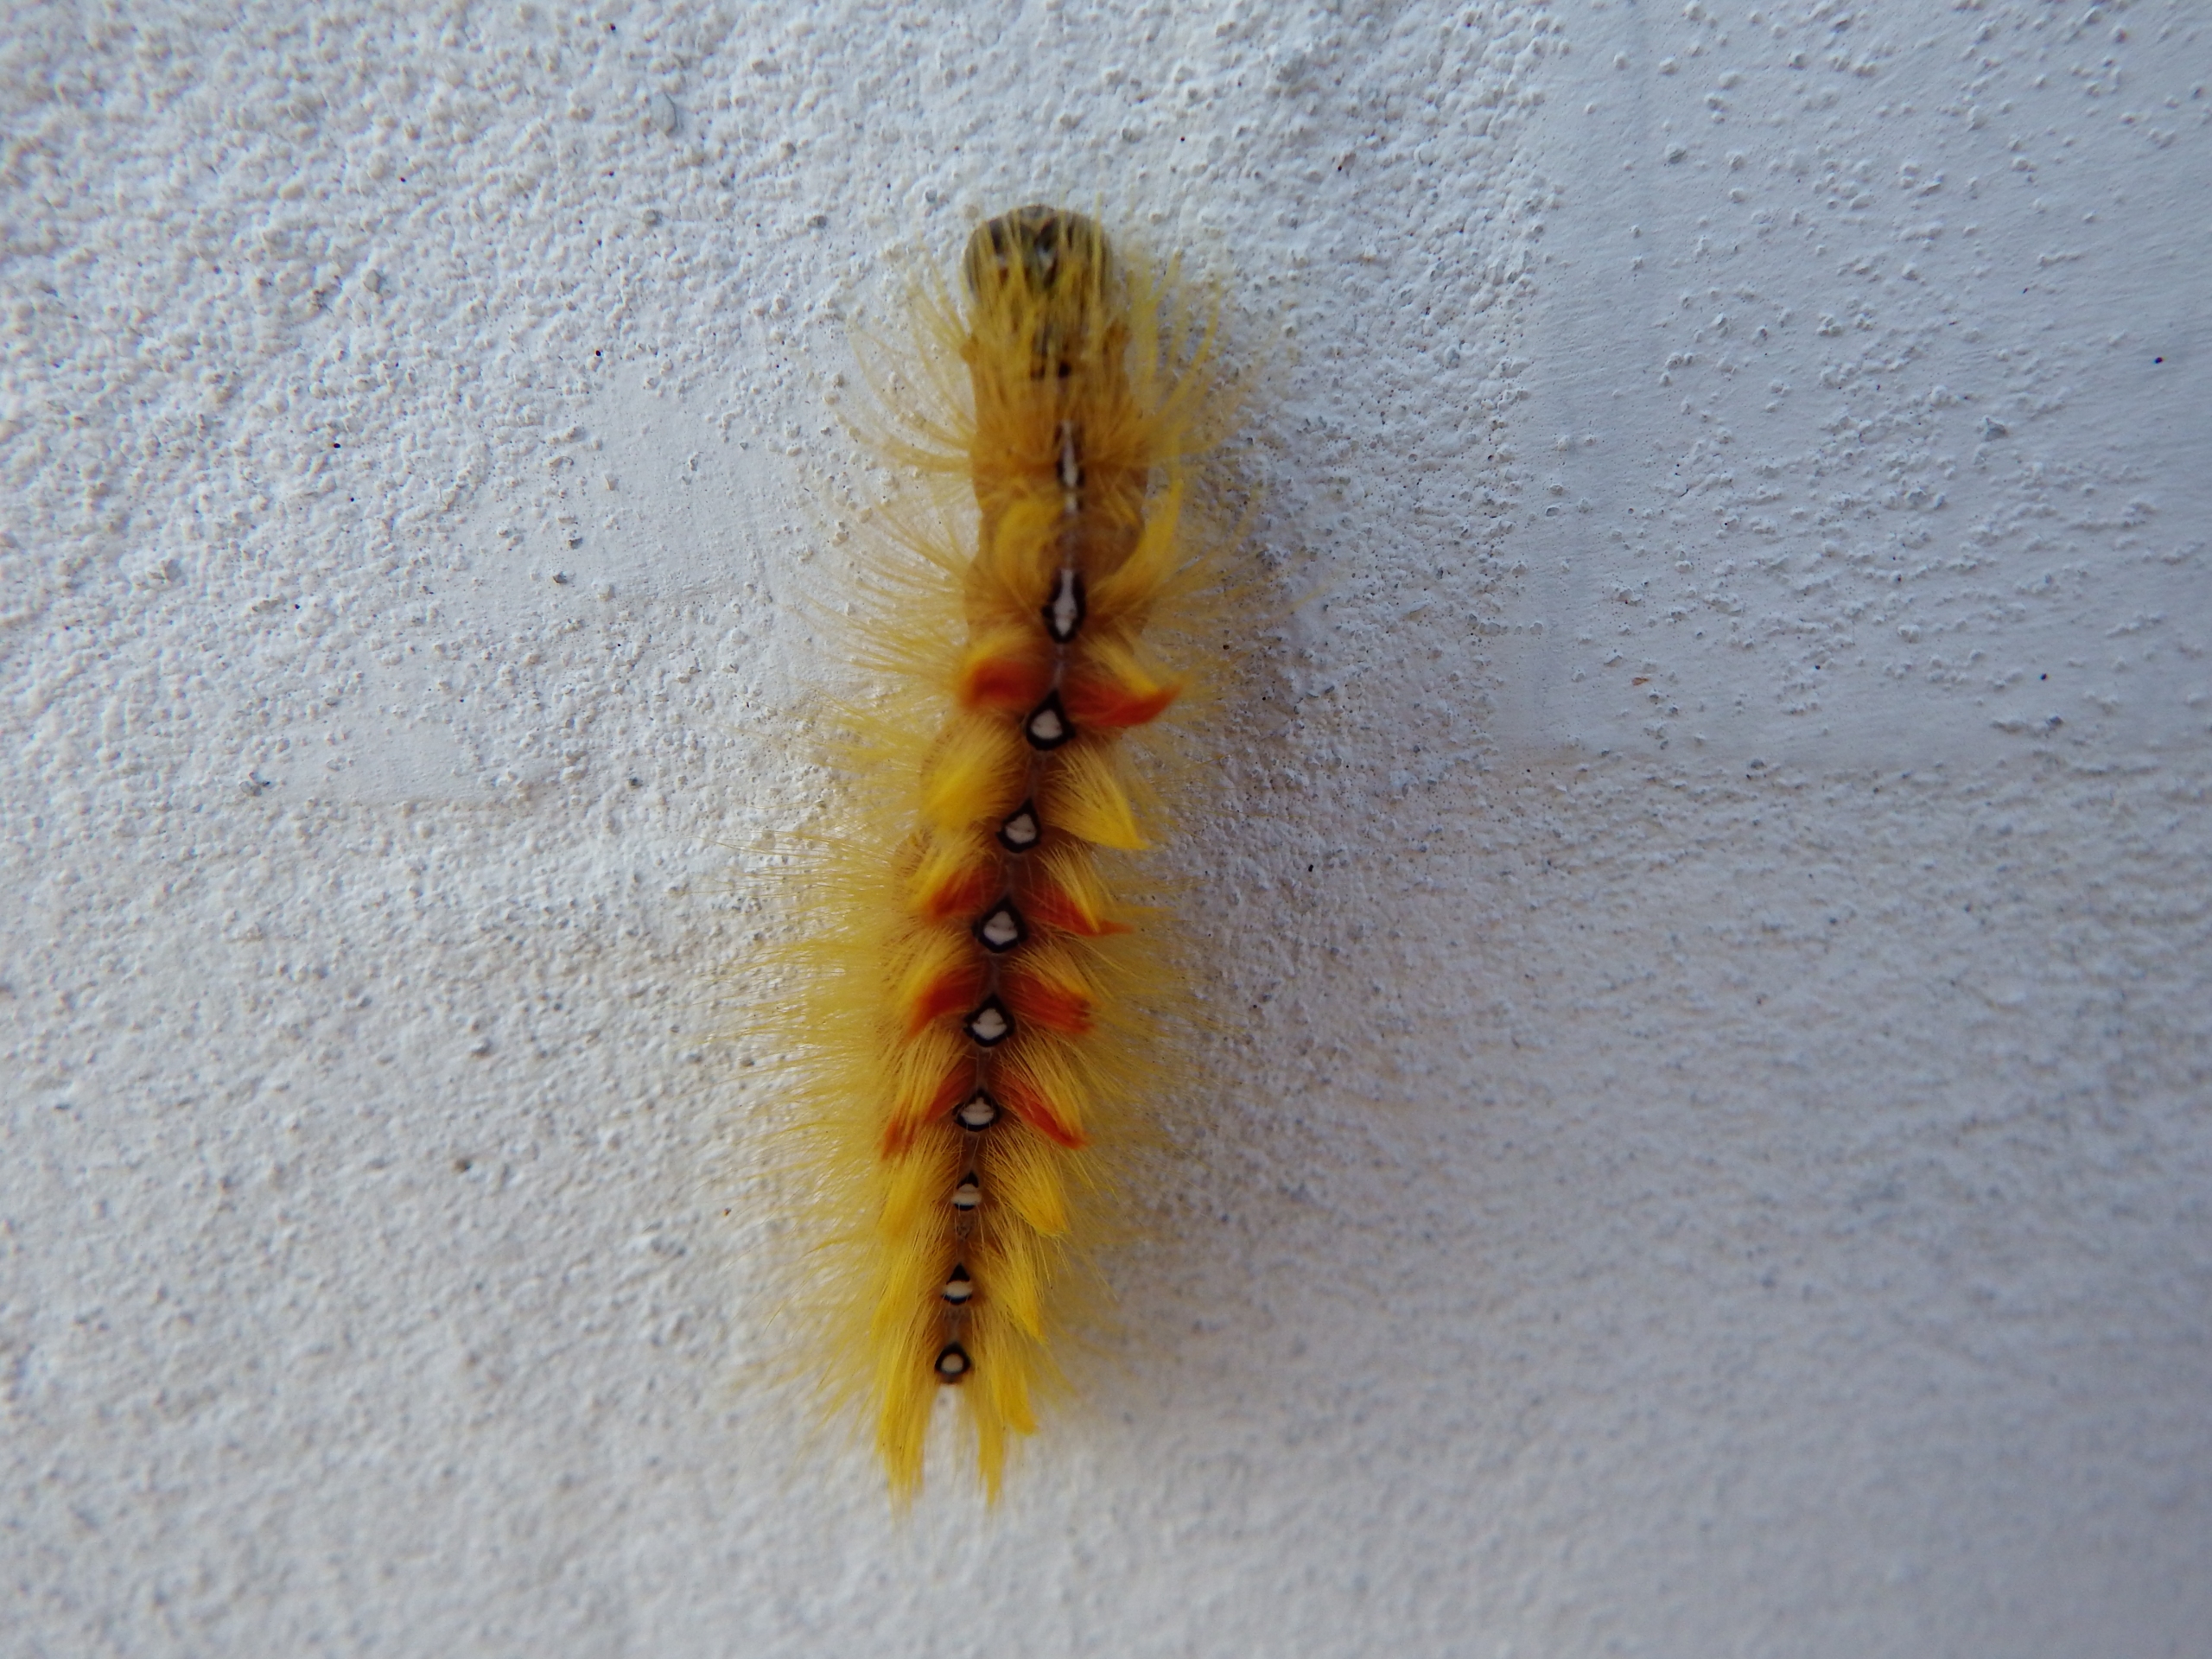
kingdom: Animalia
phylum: Arthropoda
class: Insecta
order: Lepidoptera
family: Noctuidae
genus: Acronicta
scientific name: Acronicta aceris
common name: Ahornugle
